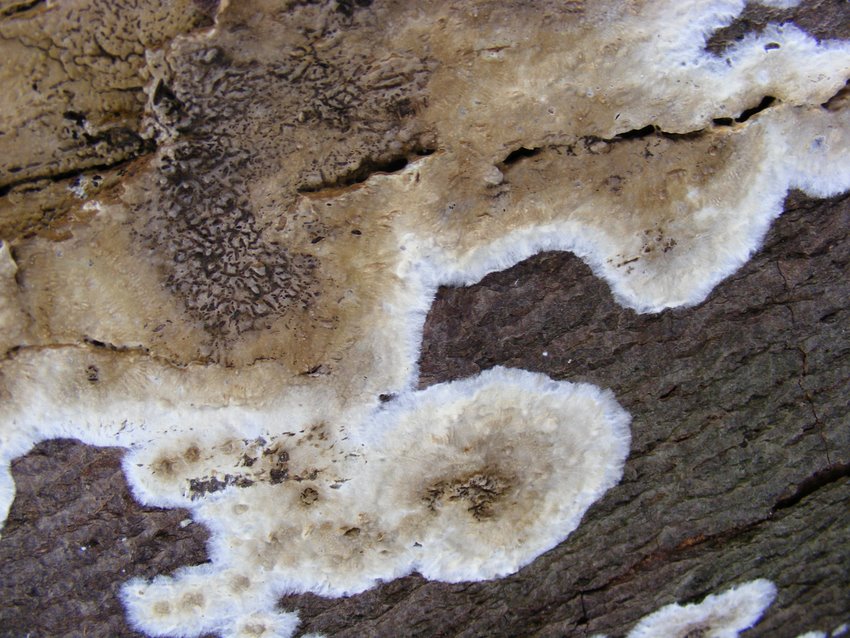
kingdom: Fungi
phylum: Basidiomycota
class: Agaricomycetes
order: Boletales
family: Coniophoraceae
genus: Penttilamyces
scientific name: Penttilamyces olivascens
